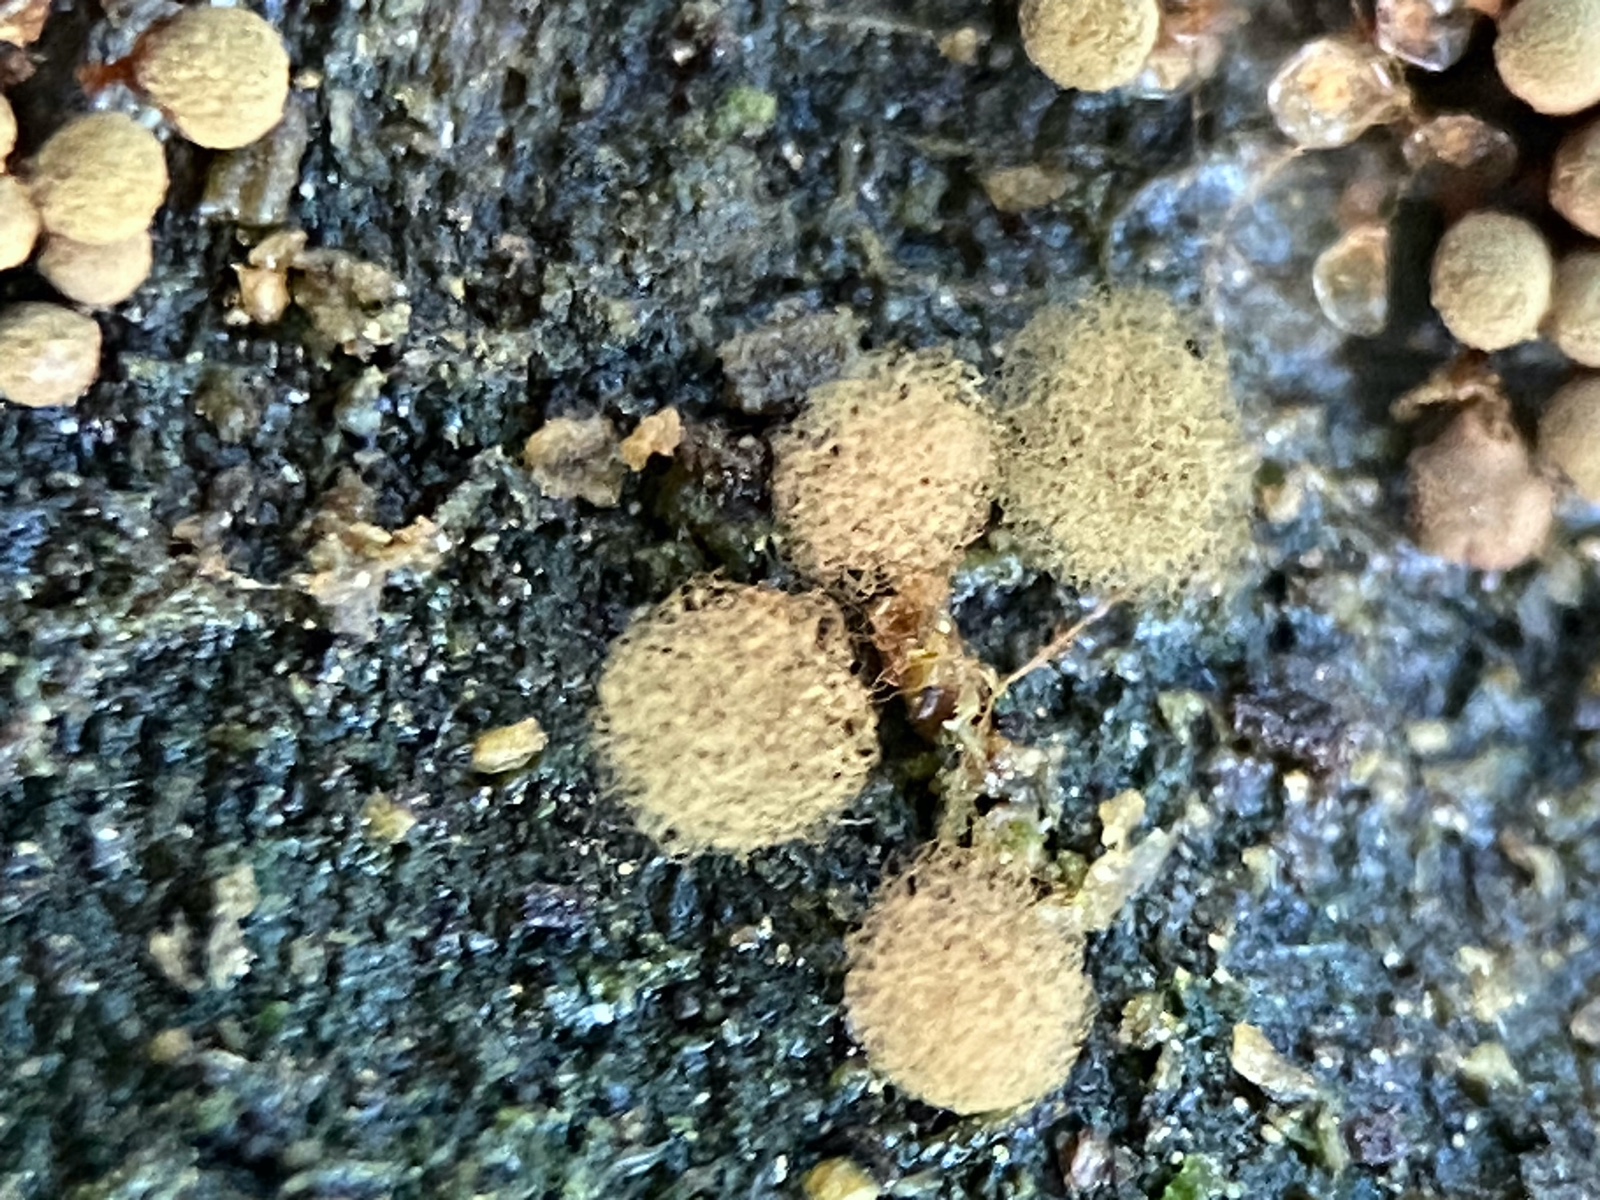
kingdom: Protozoa
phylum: Mycetozoa
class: Myxomycetes
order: Trichiales
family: Arcyriaceae
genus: Arcyria
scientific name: Arcyria ferruginea
